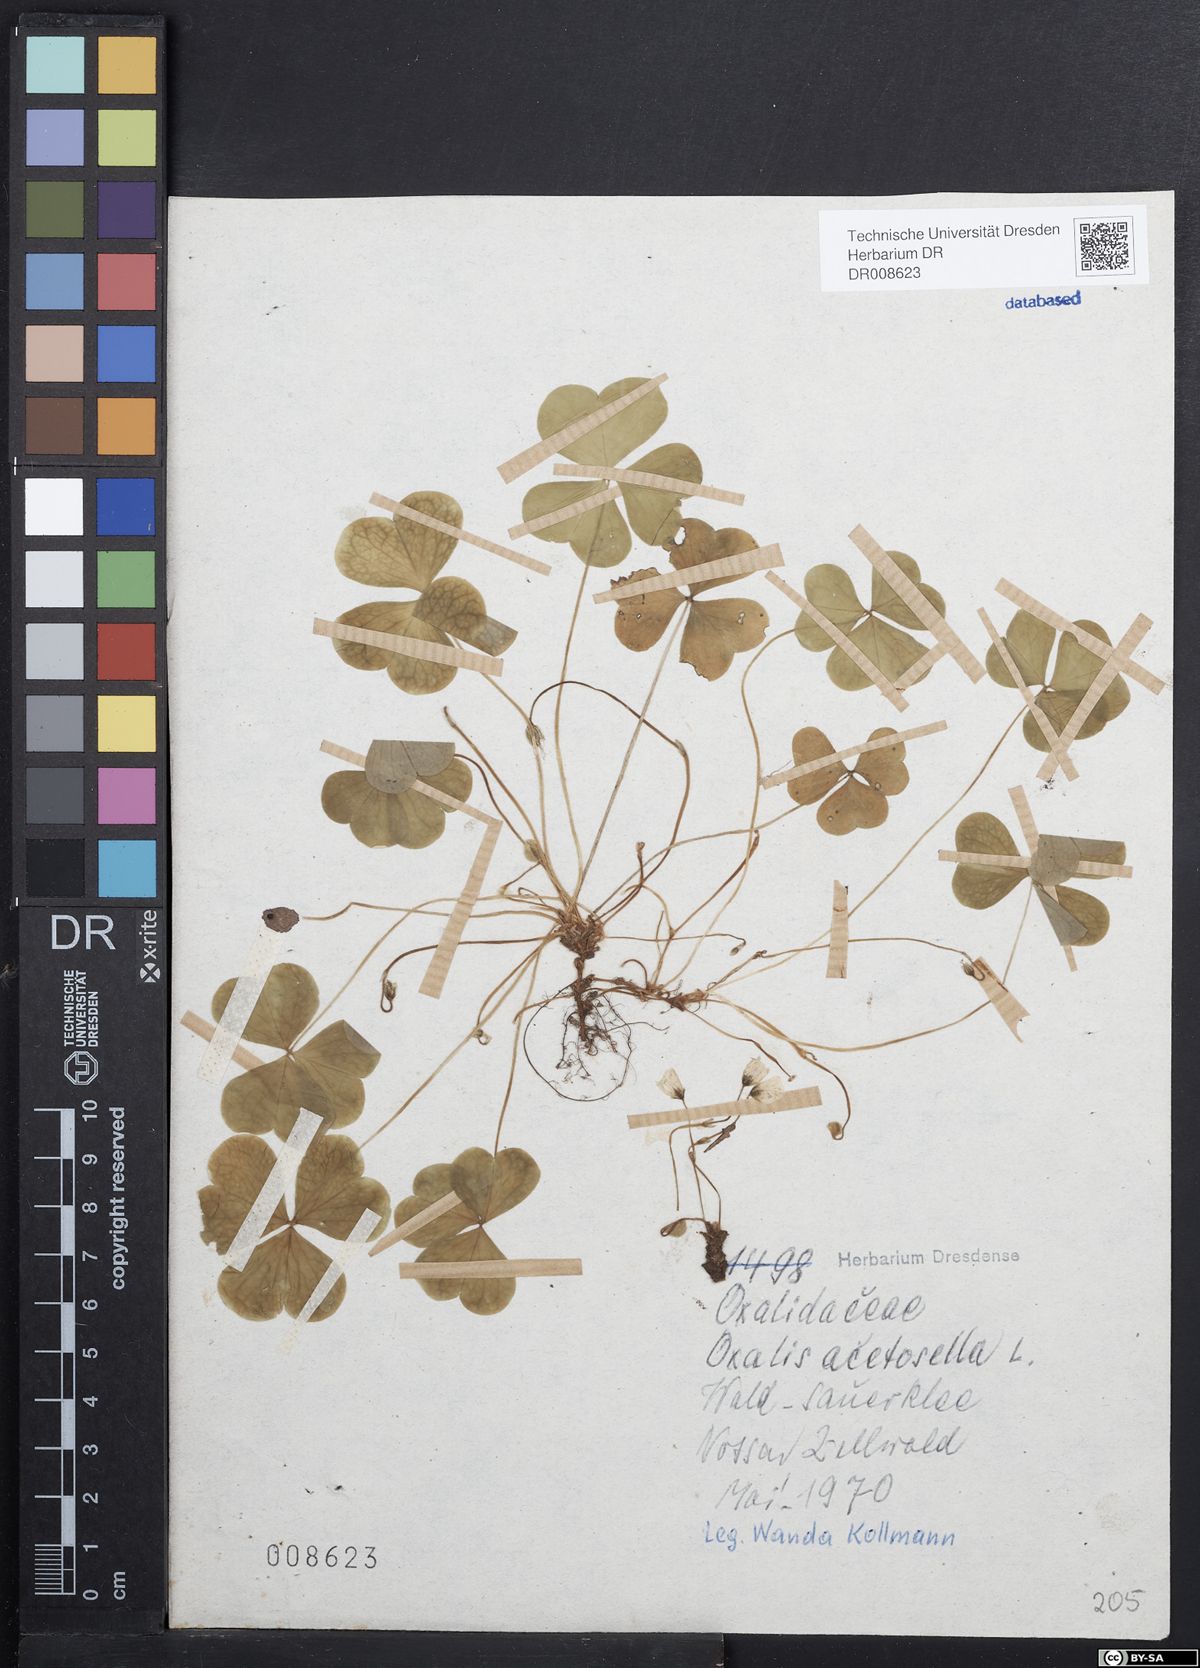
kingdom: Plantae
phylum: Tracheophyta
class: Magnoliopsida
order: Oxalidales
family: Oxalidaceae
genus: Oxalis
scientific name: Oxalis acetosella
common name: Wood-sorrel
